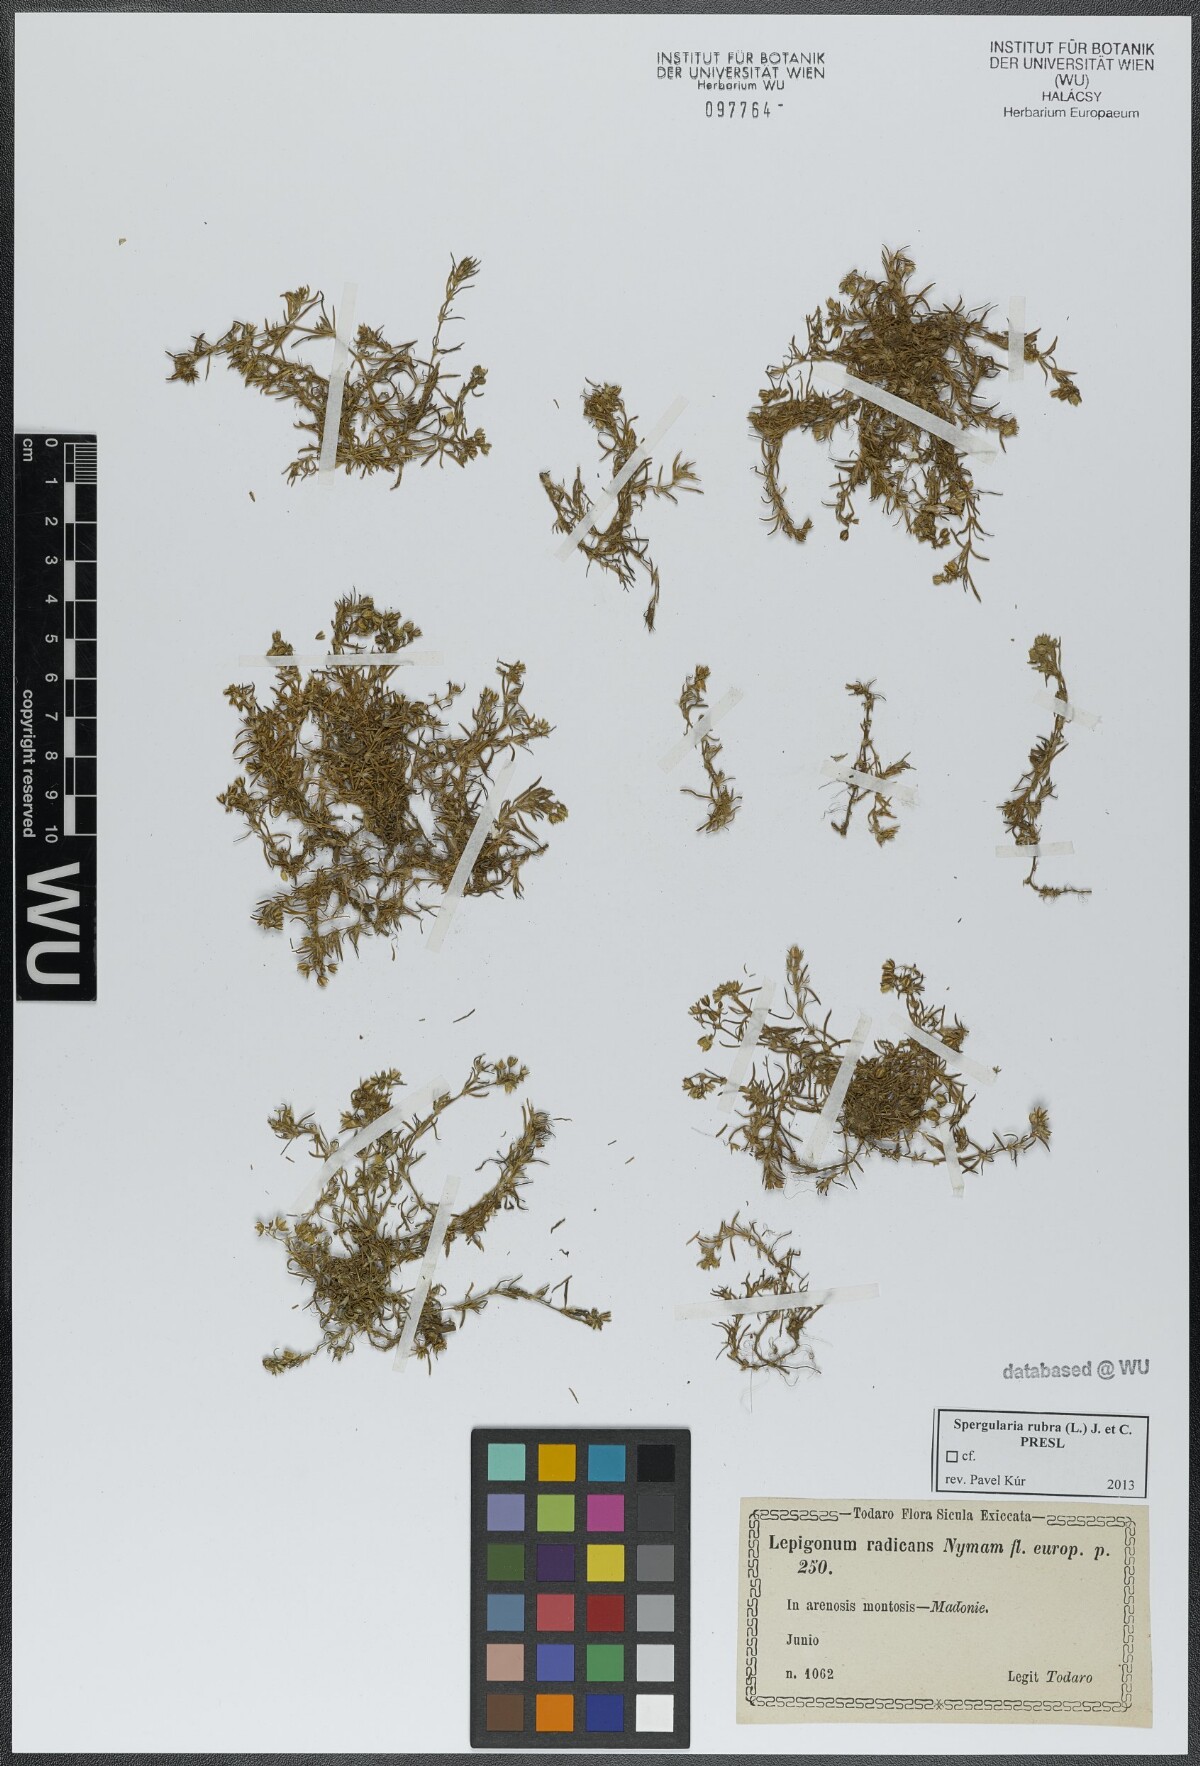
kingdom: Plantae
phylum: Tracheophyta
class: Magnoliopsida
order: Caryophyllales
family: Caryophyllaceae
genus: Spergularia
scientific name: Spergularia rubra
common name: Red sand-spurrey
